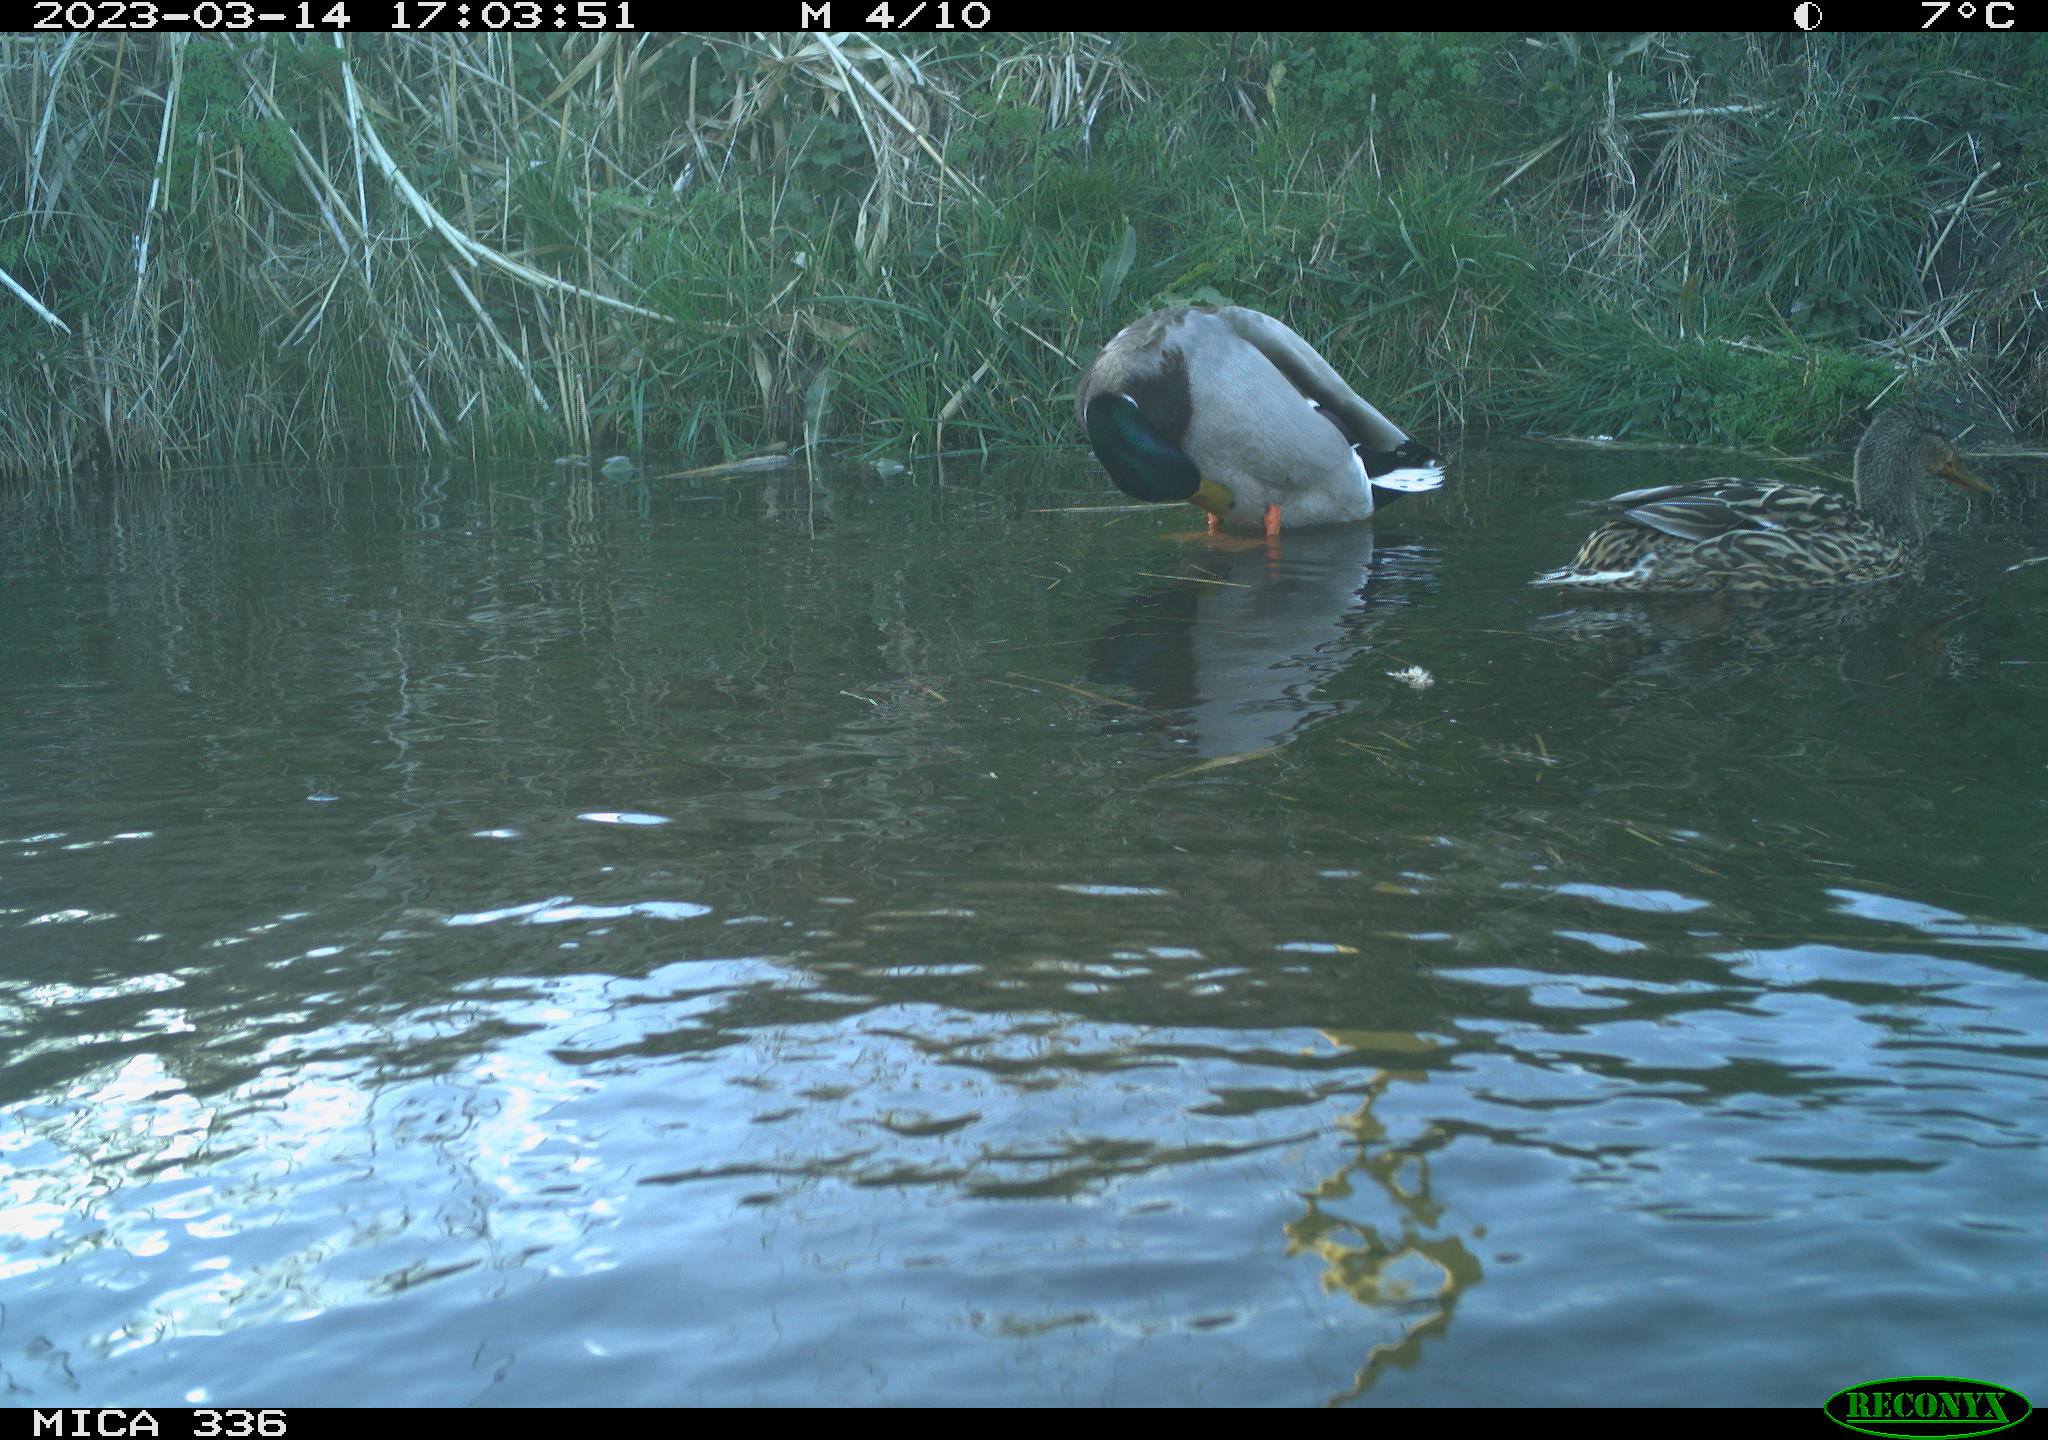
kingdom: Animalia
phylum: Chordata
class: Aves
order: Anseriformes
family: Anatidae
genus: Anas
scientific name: Anas
